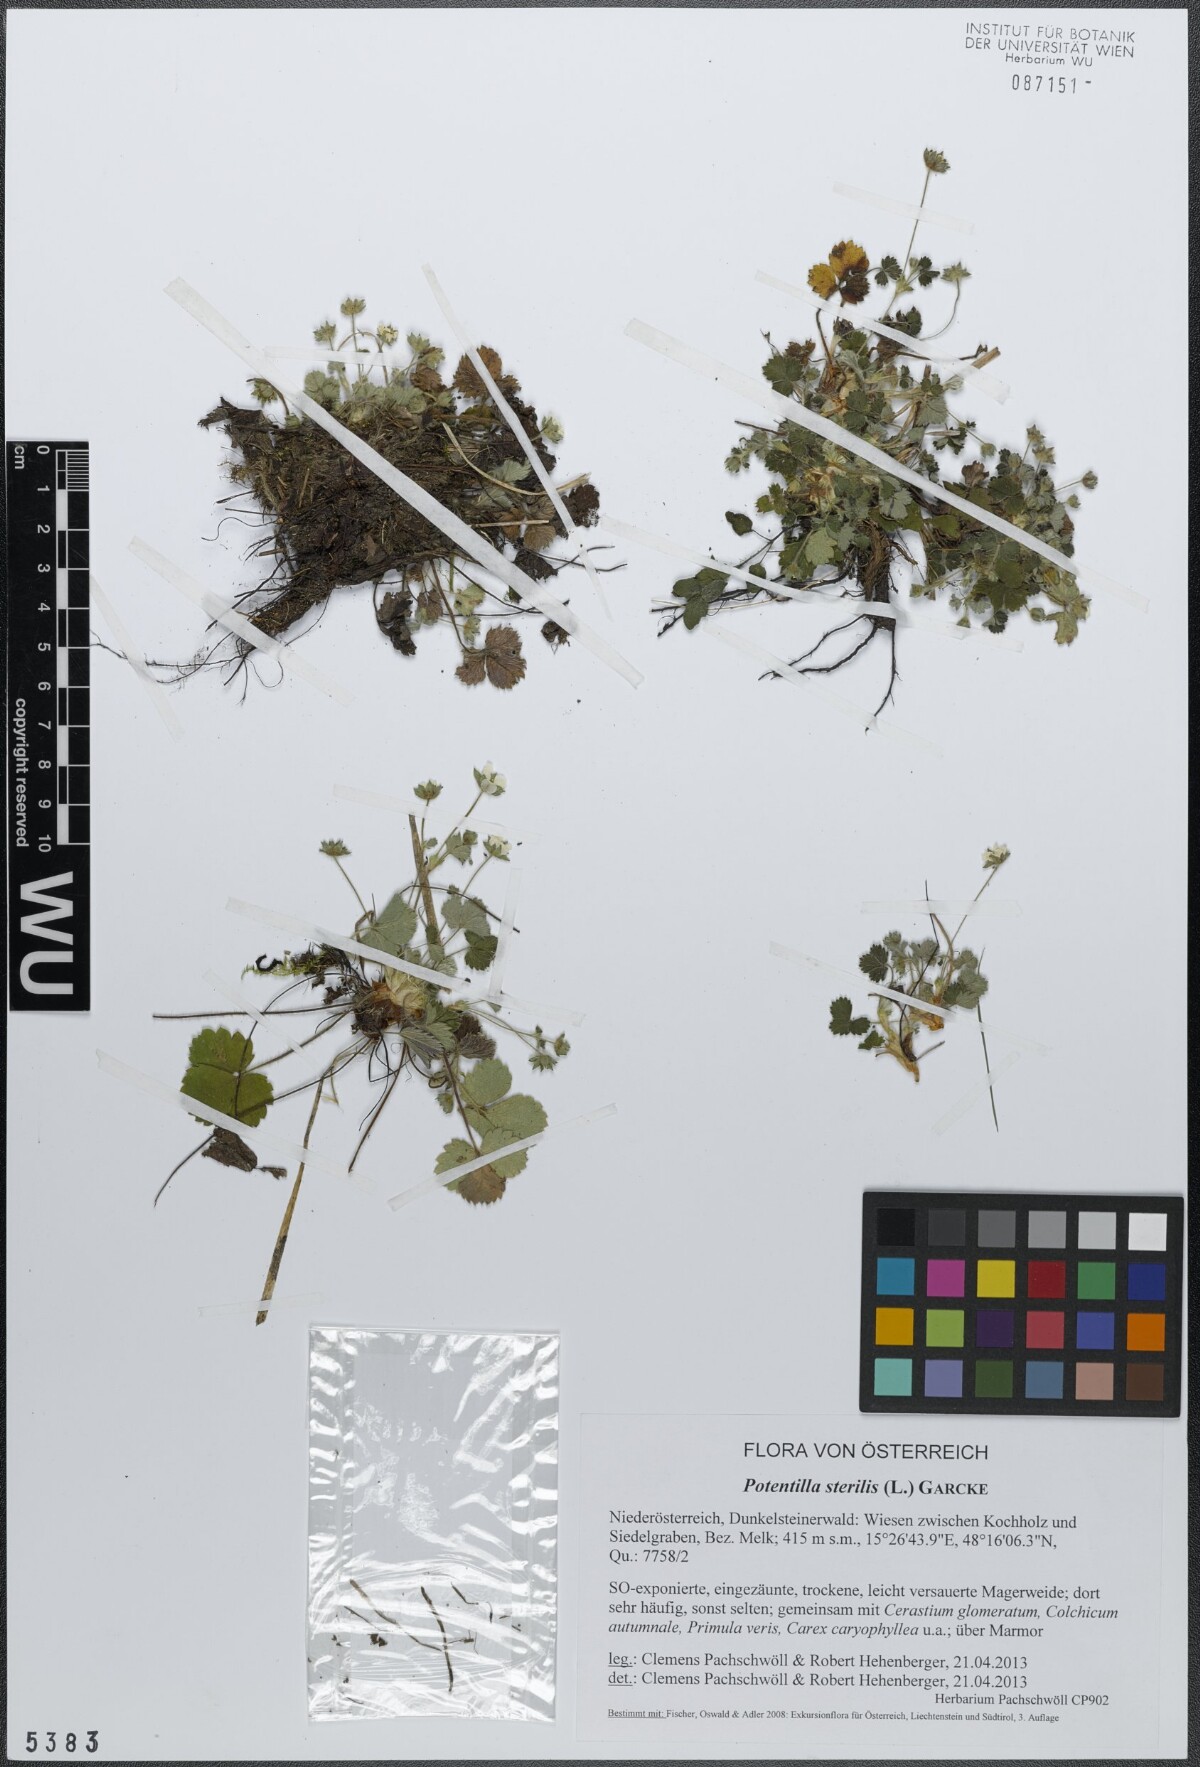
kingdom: Plantae
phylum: Tracheophyta
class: Magnoliopsida
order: Rosales
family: Rosaceae
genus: Potentilla
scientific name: Potentilla sterilis
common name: Barren strawberry
